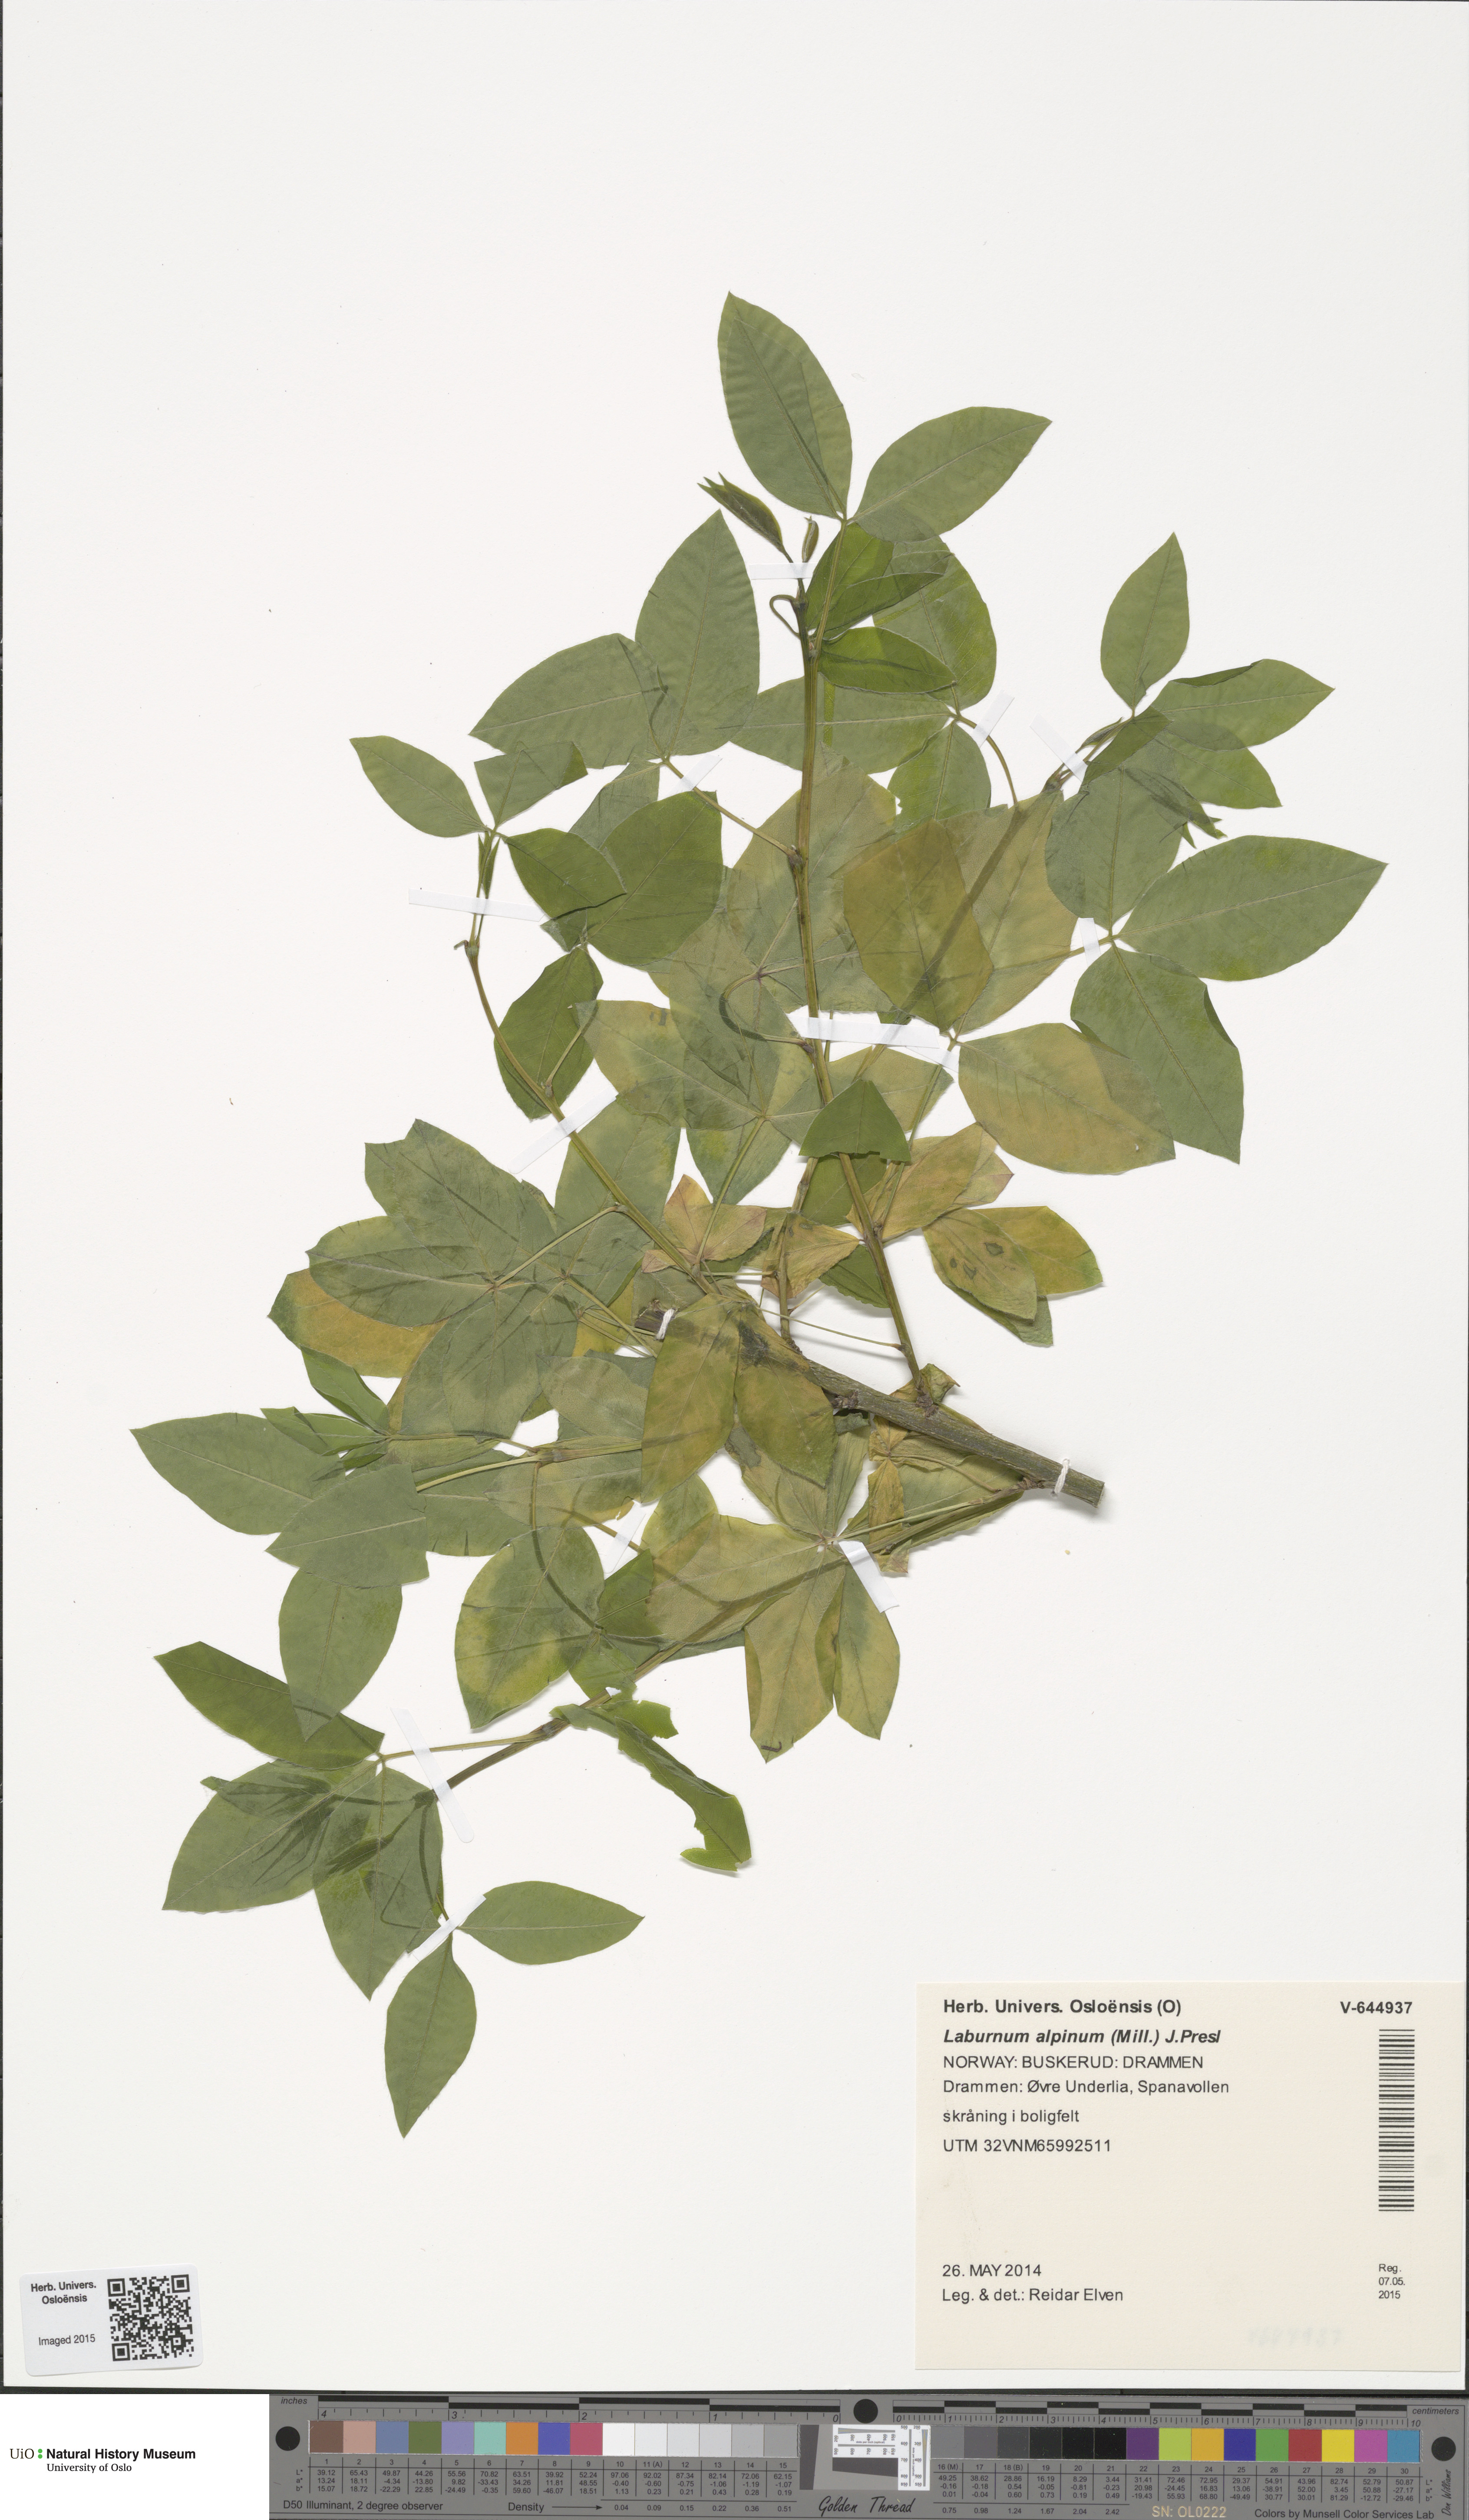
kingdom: Plantae
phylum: Tracheophyta
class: Magnoliopsida
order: Fabales
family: Fabaceae
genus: Laburnum
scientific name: Laburnum alpinum
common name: Scottish laburnum
